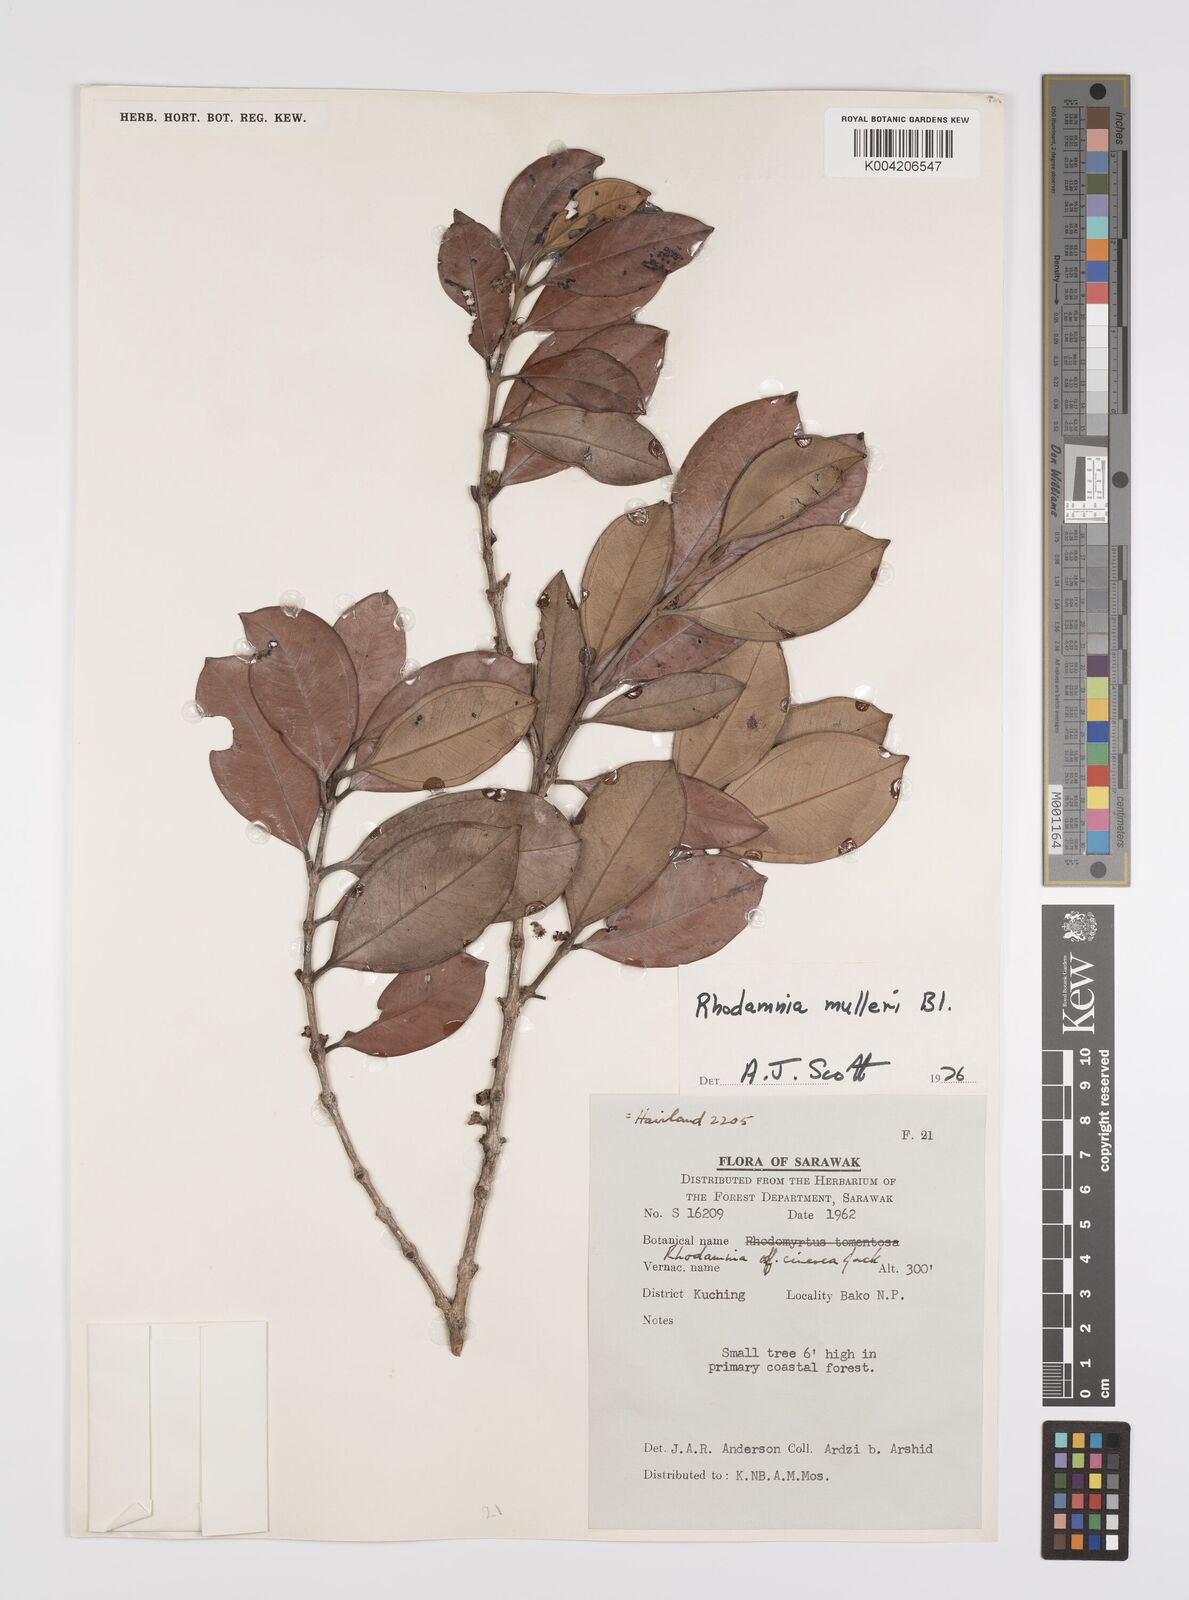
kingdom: Plantae
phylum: Tracheophyta
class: Magnoliopsida
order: Myrtales
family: Myrtaceae
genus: Rhodamnia
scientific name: Rhodamnia mulleri
